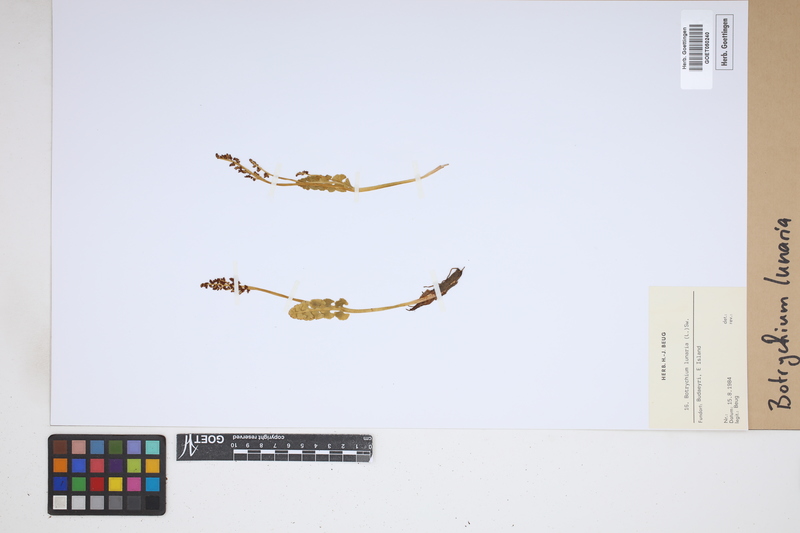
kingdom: Plantae
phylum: Tracheophyta
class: Polypodiopsida
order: Ophioglossales
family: Ophioglossaceae
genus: Botrychium
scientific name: Botrychium lunaria
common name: Moonwort
